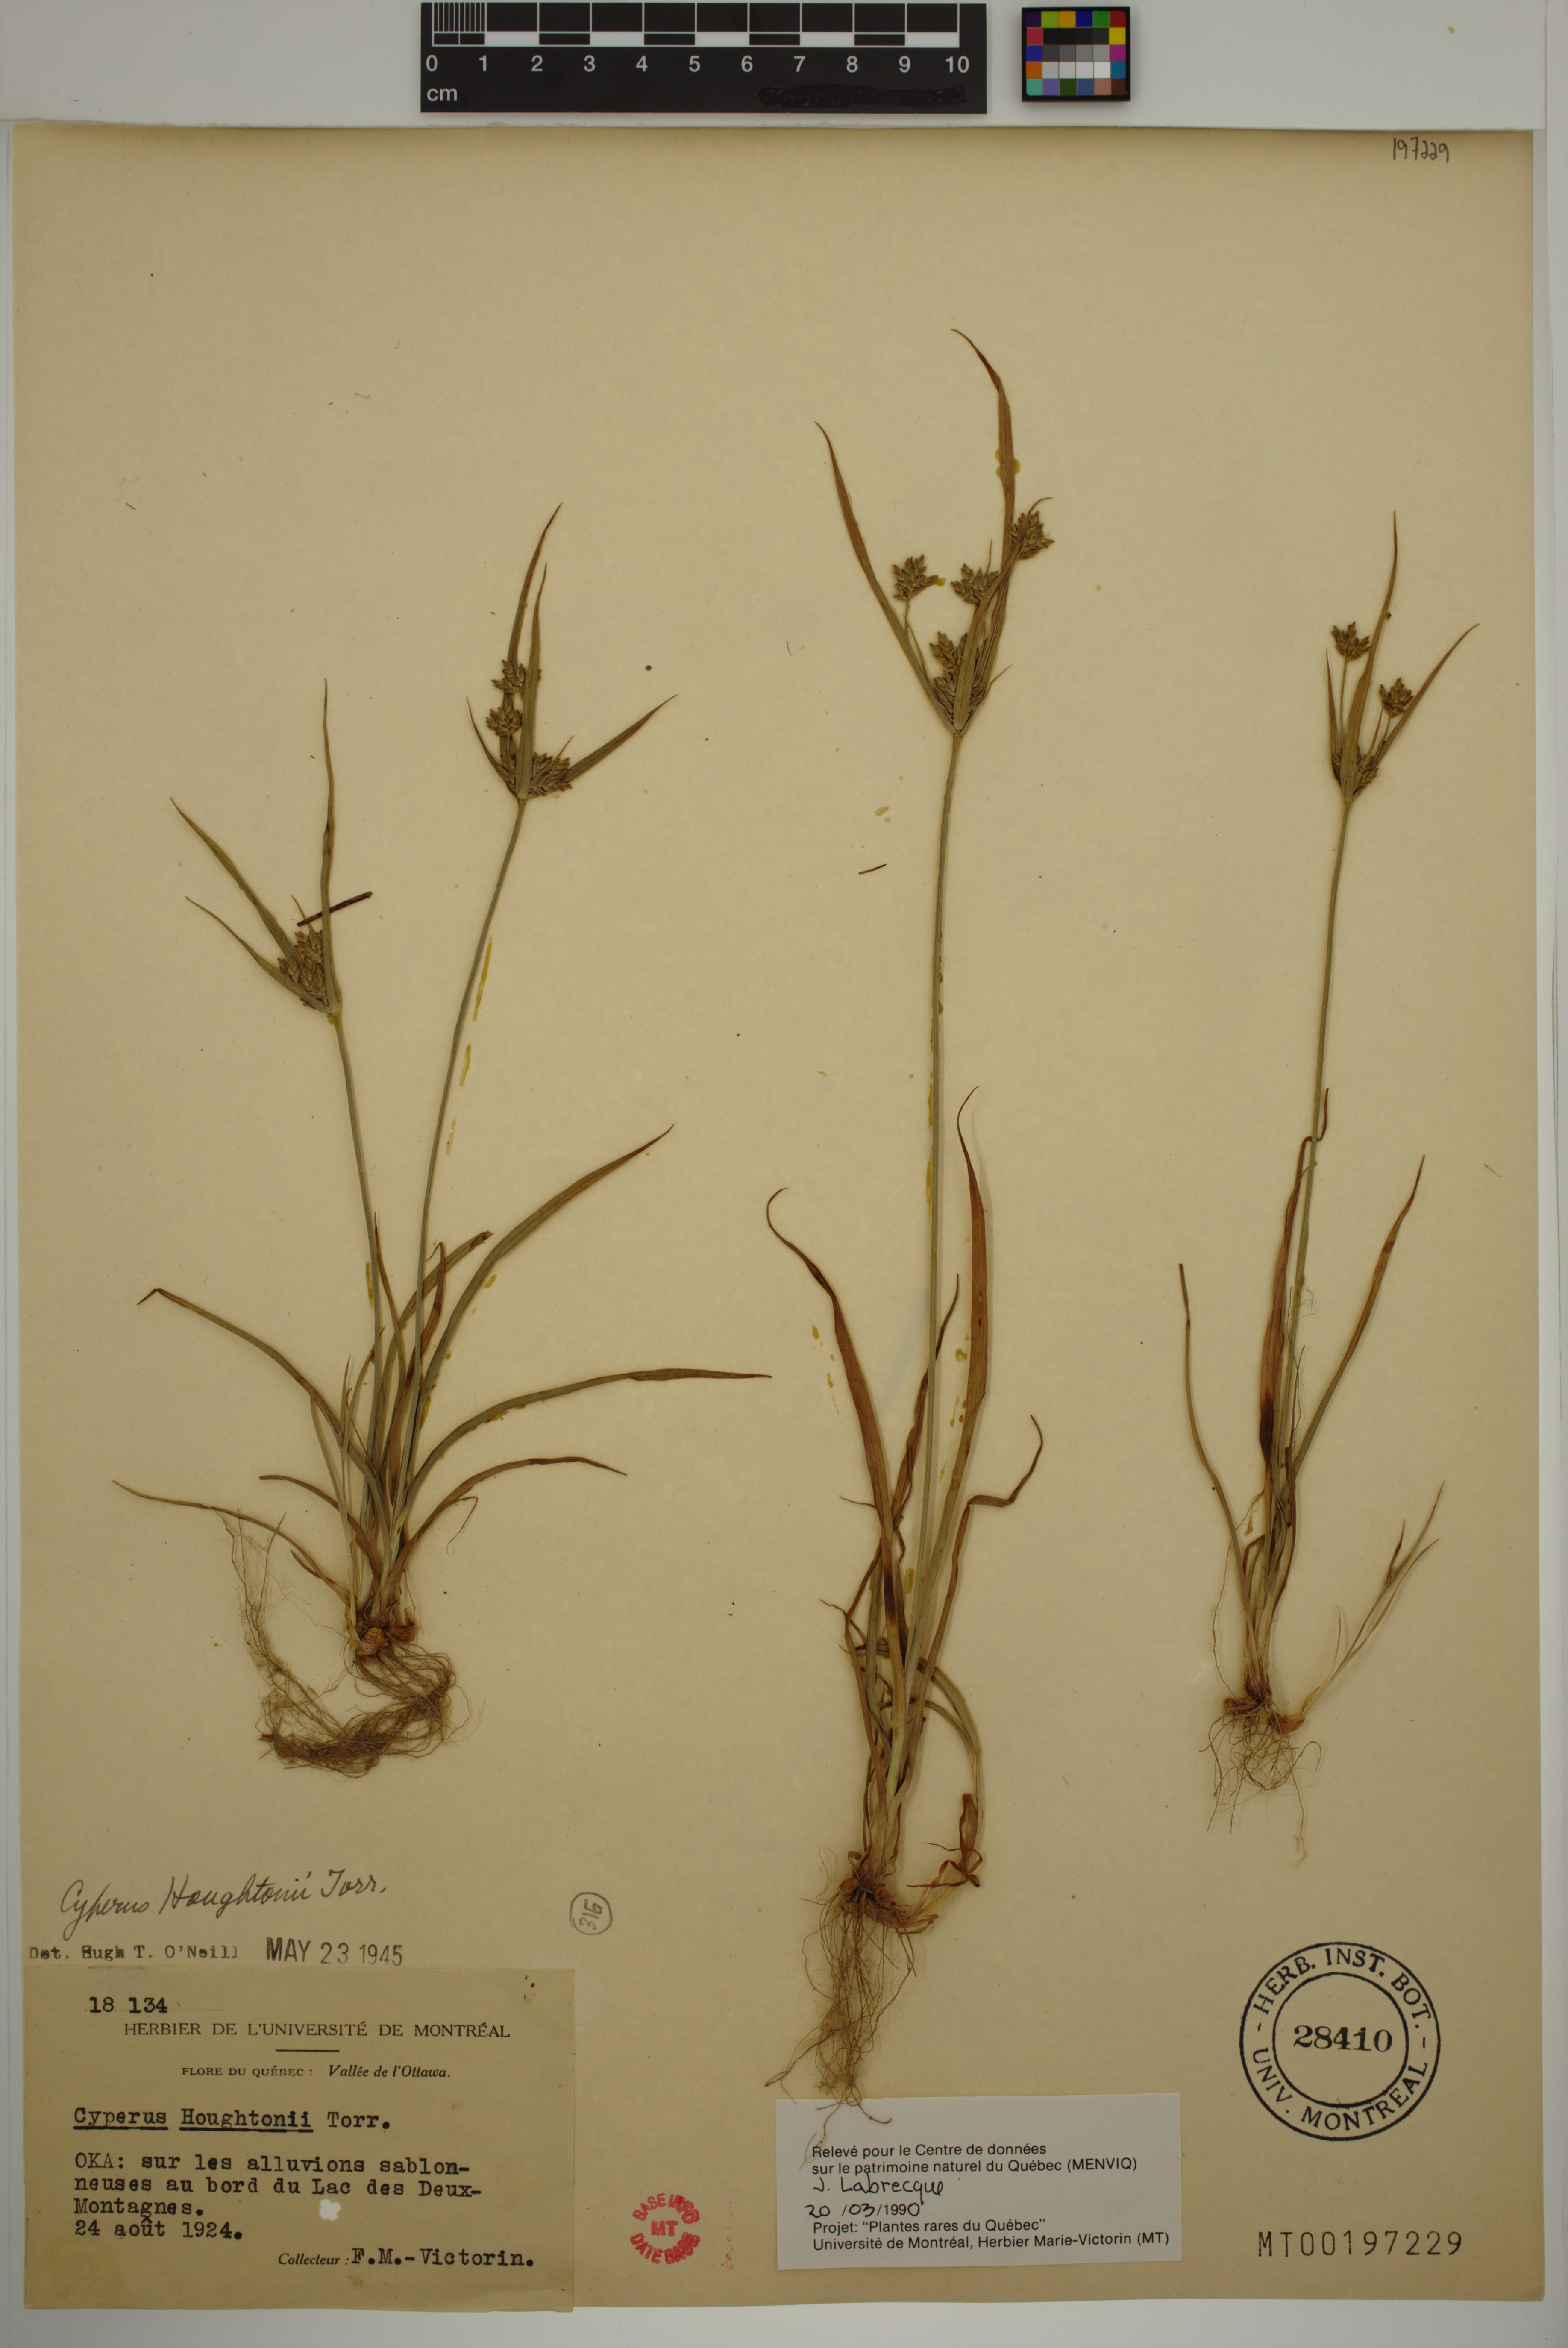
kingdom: Plantae
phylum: Tracheophyta
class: Liliopsida
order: Poales
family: Cyperaceae
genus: Cyperus
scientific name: Cyperus houghtonii
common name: Houghton's cyperus
